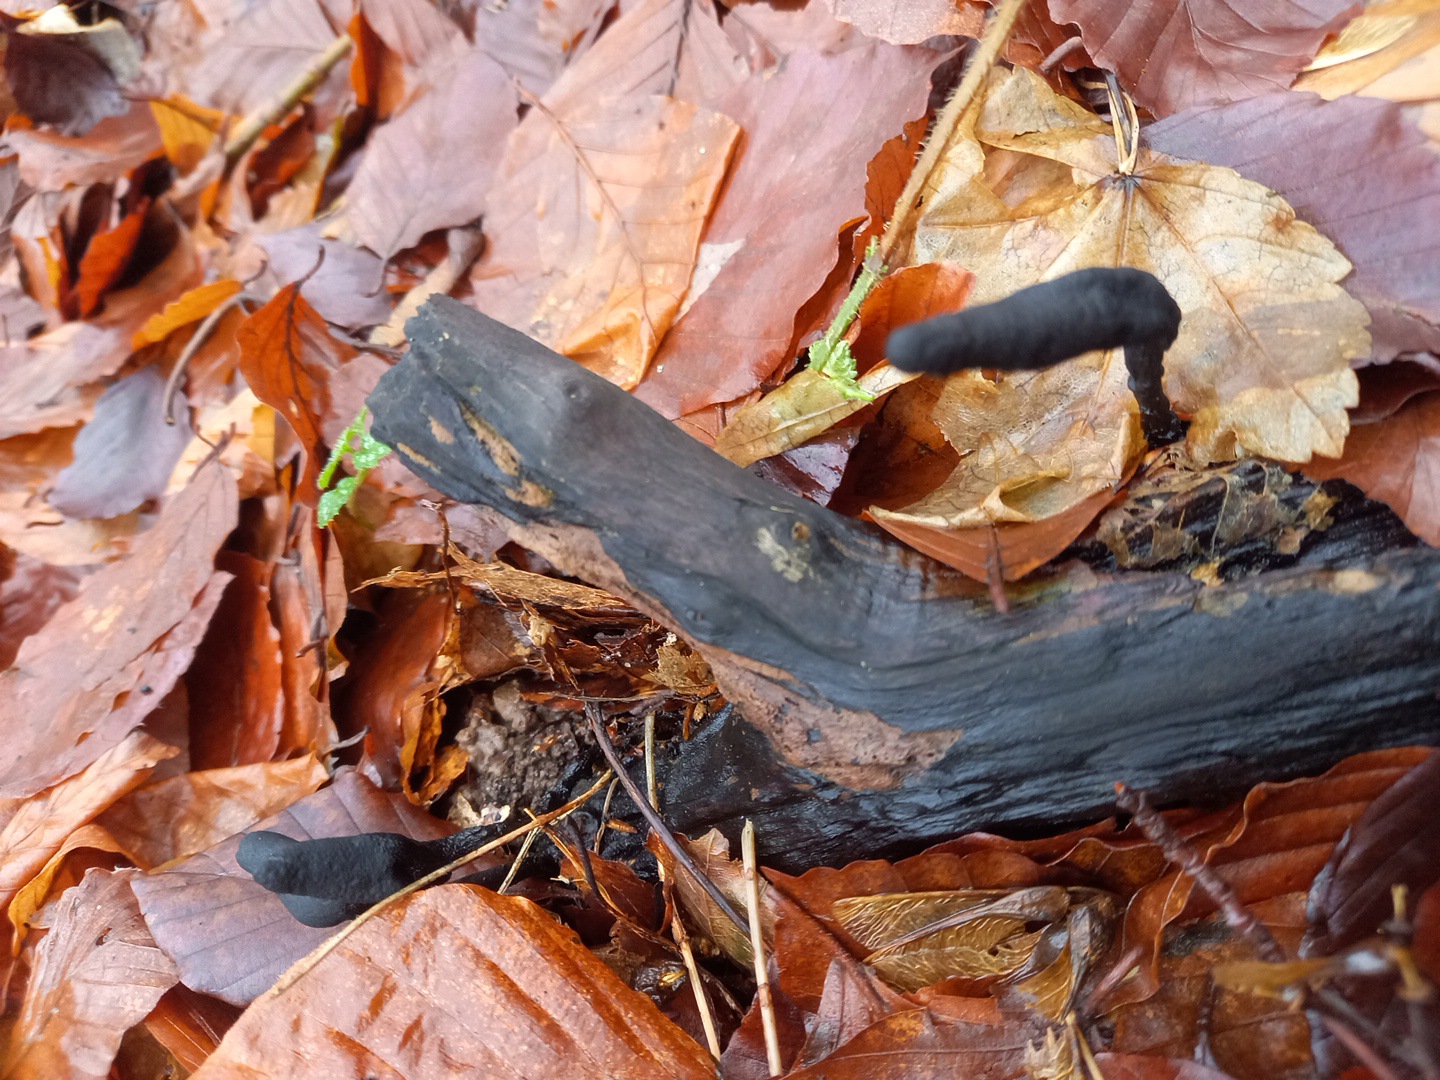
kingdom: Fungi
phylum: Ascomycota
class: Sordariomycetes
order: Xylariales
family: Xylariaceae
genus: Xylaria
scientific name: Xylaria longipes
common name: slank stødsvamp
